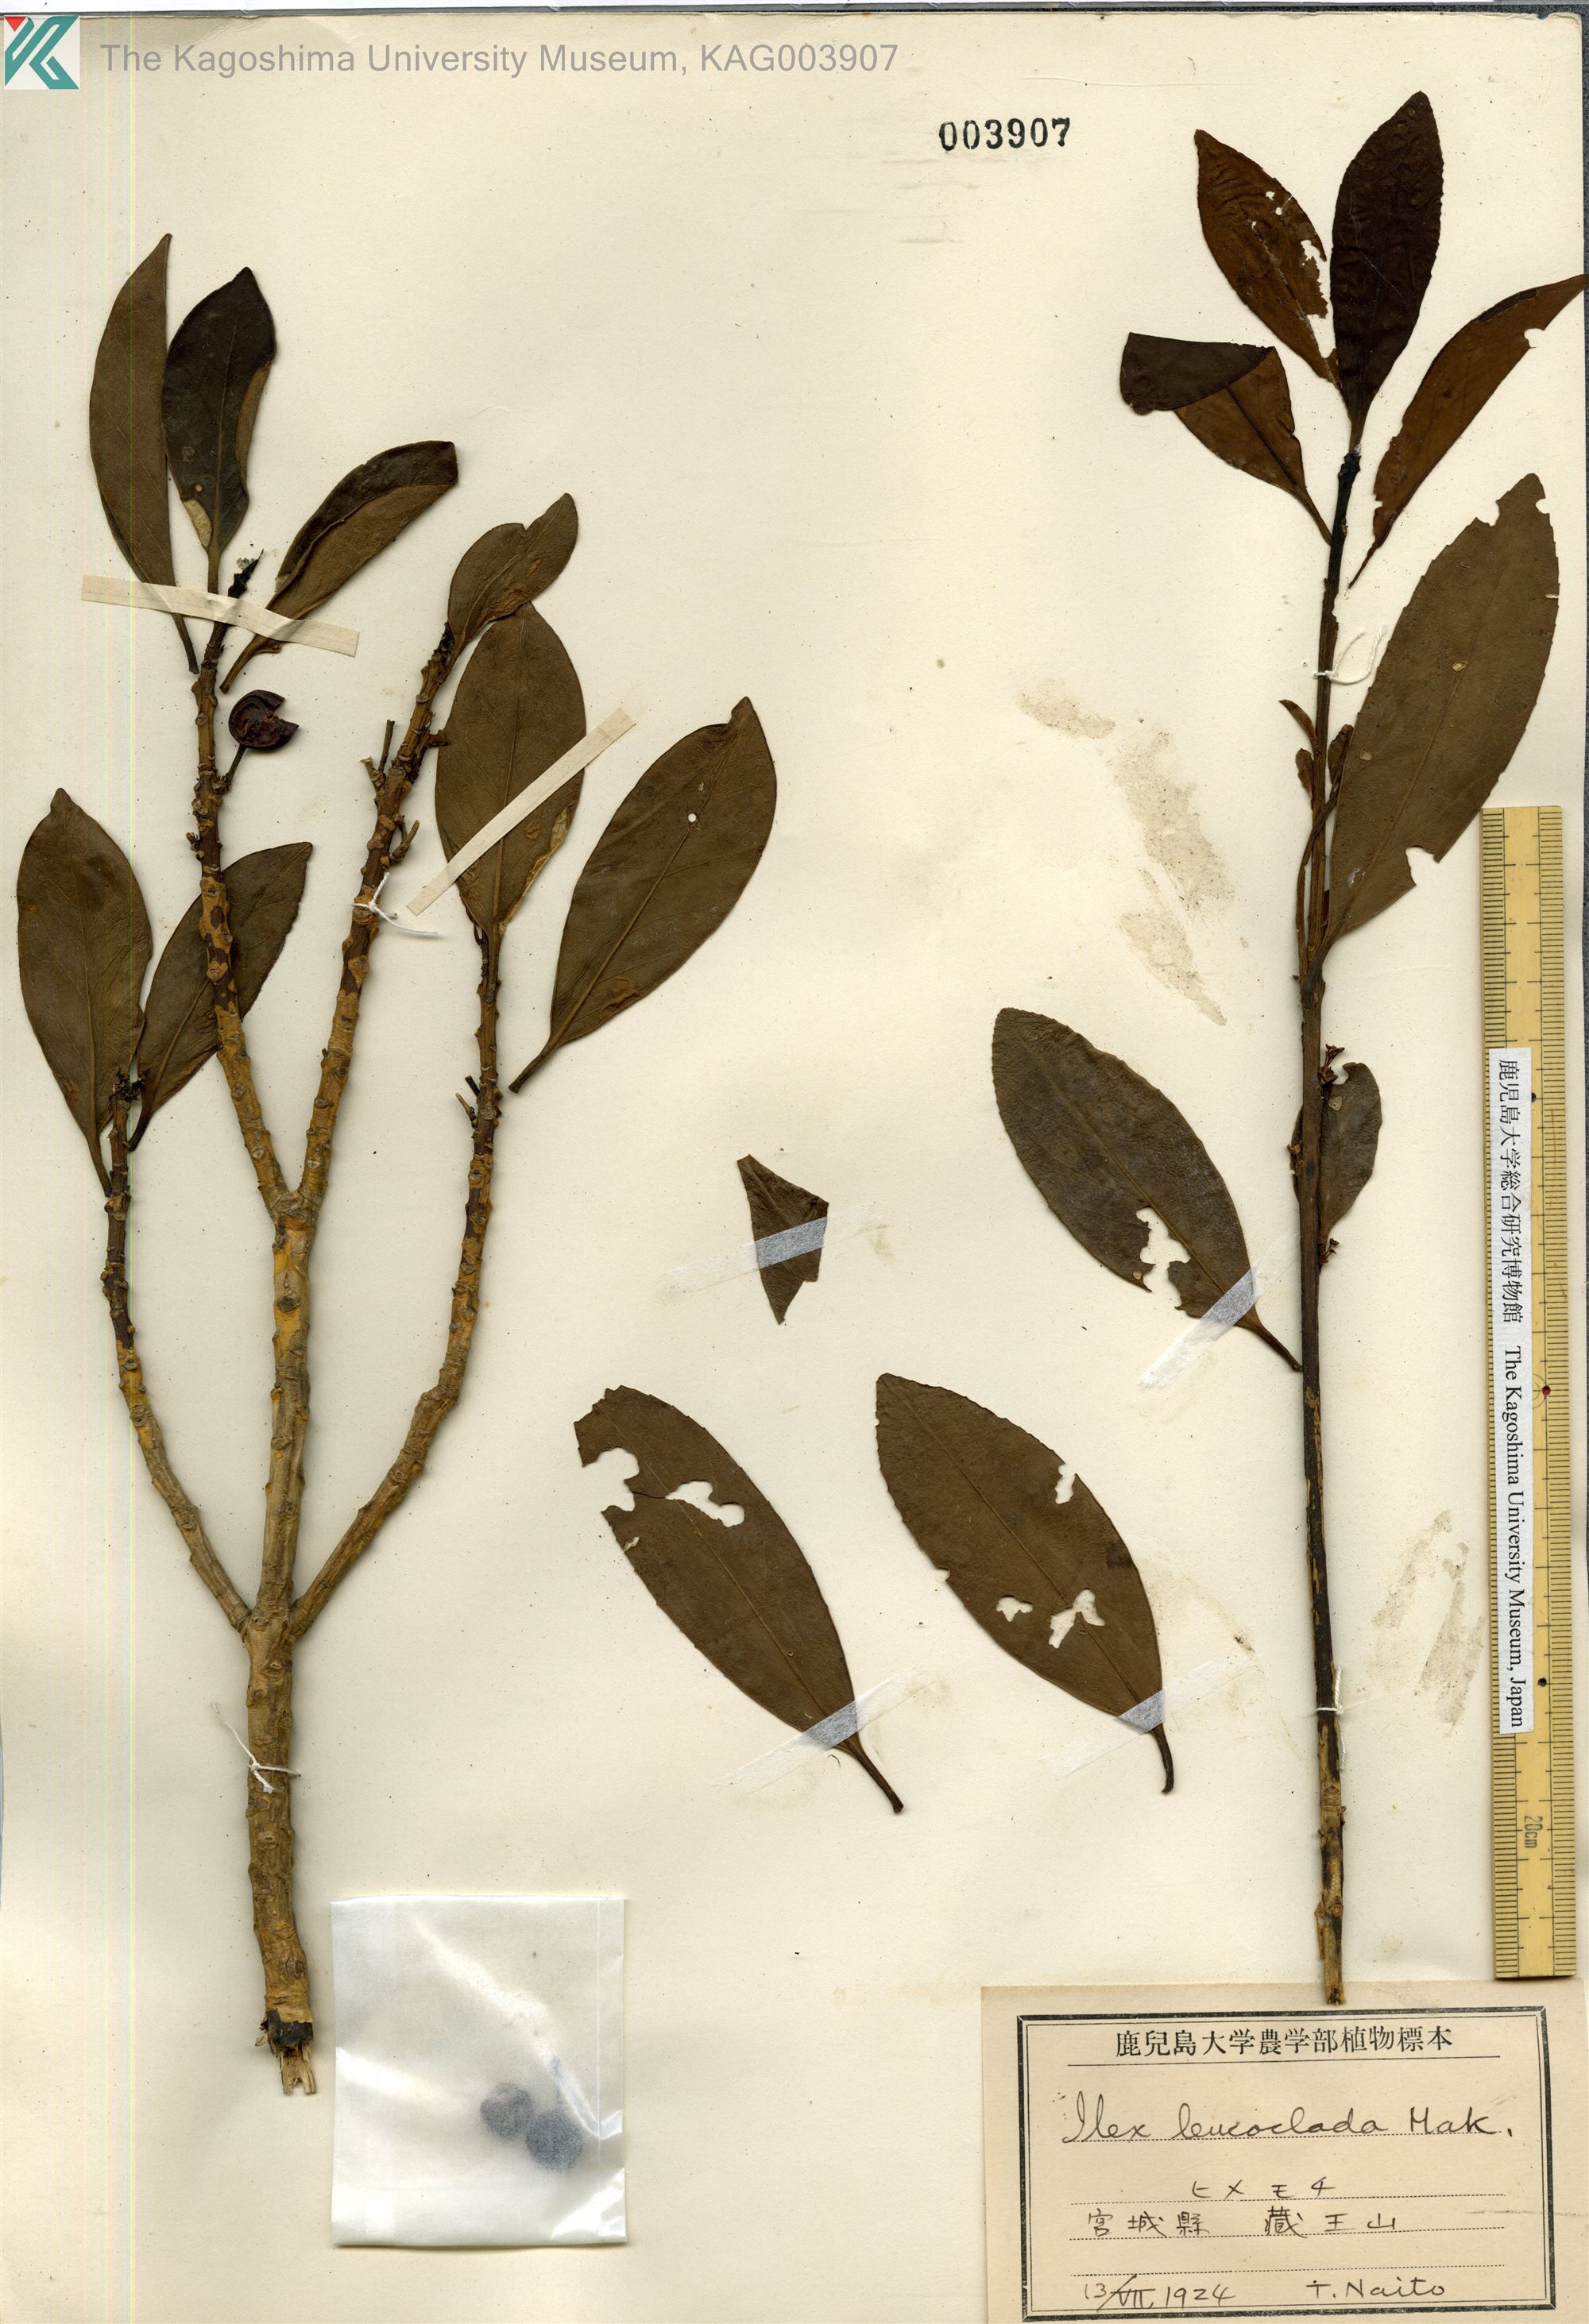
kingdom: Plantae
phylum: Tracheophyta
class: Magnoliopsida
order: Aquifoliales
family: Aquifoliaceae
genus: Ilex
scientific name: Ilex leucoclada
